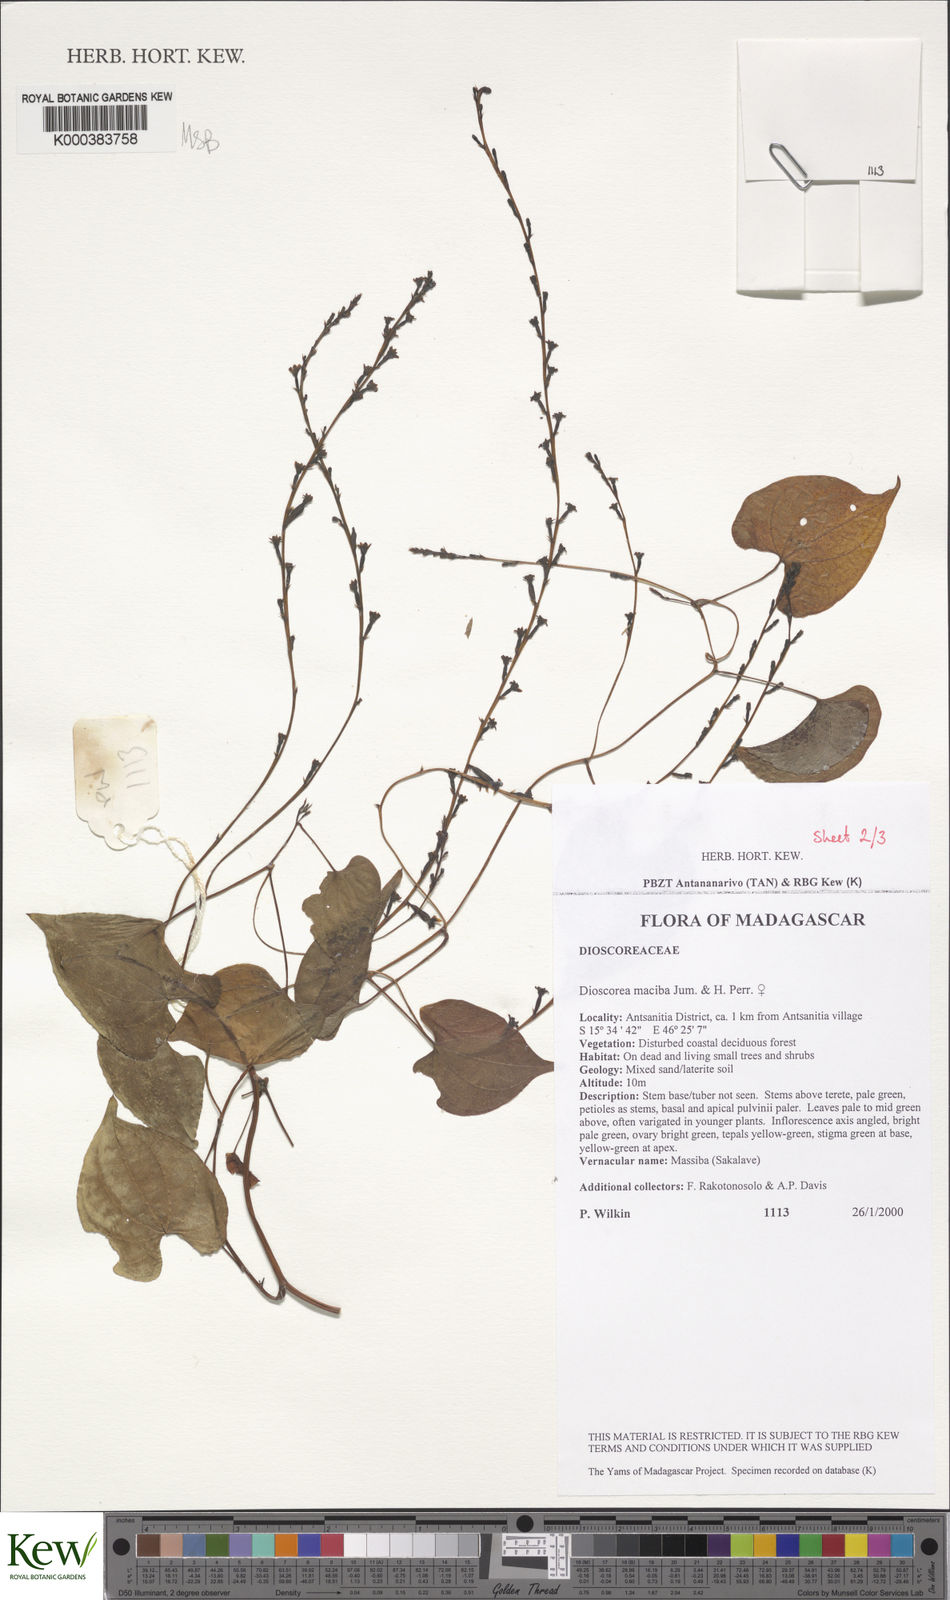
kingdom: Plantae
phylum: Tracheophyta
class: Liliopsida
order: Dioscoreales
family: Dioscoreaceae
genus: Dioscorea
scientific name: Dioscorea
